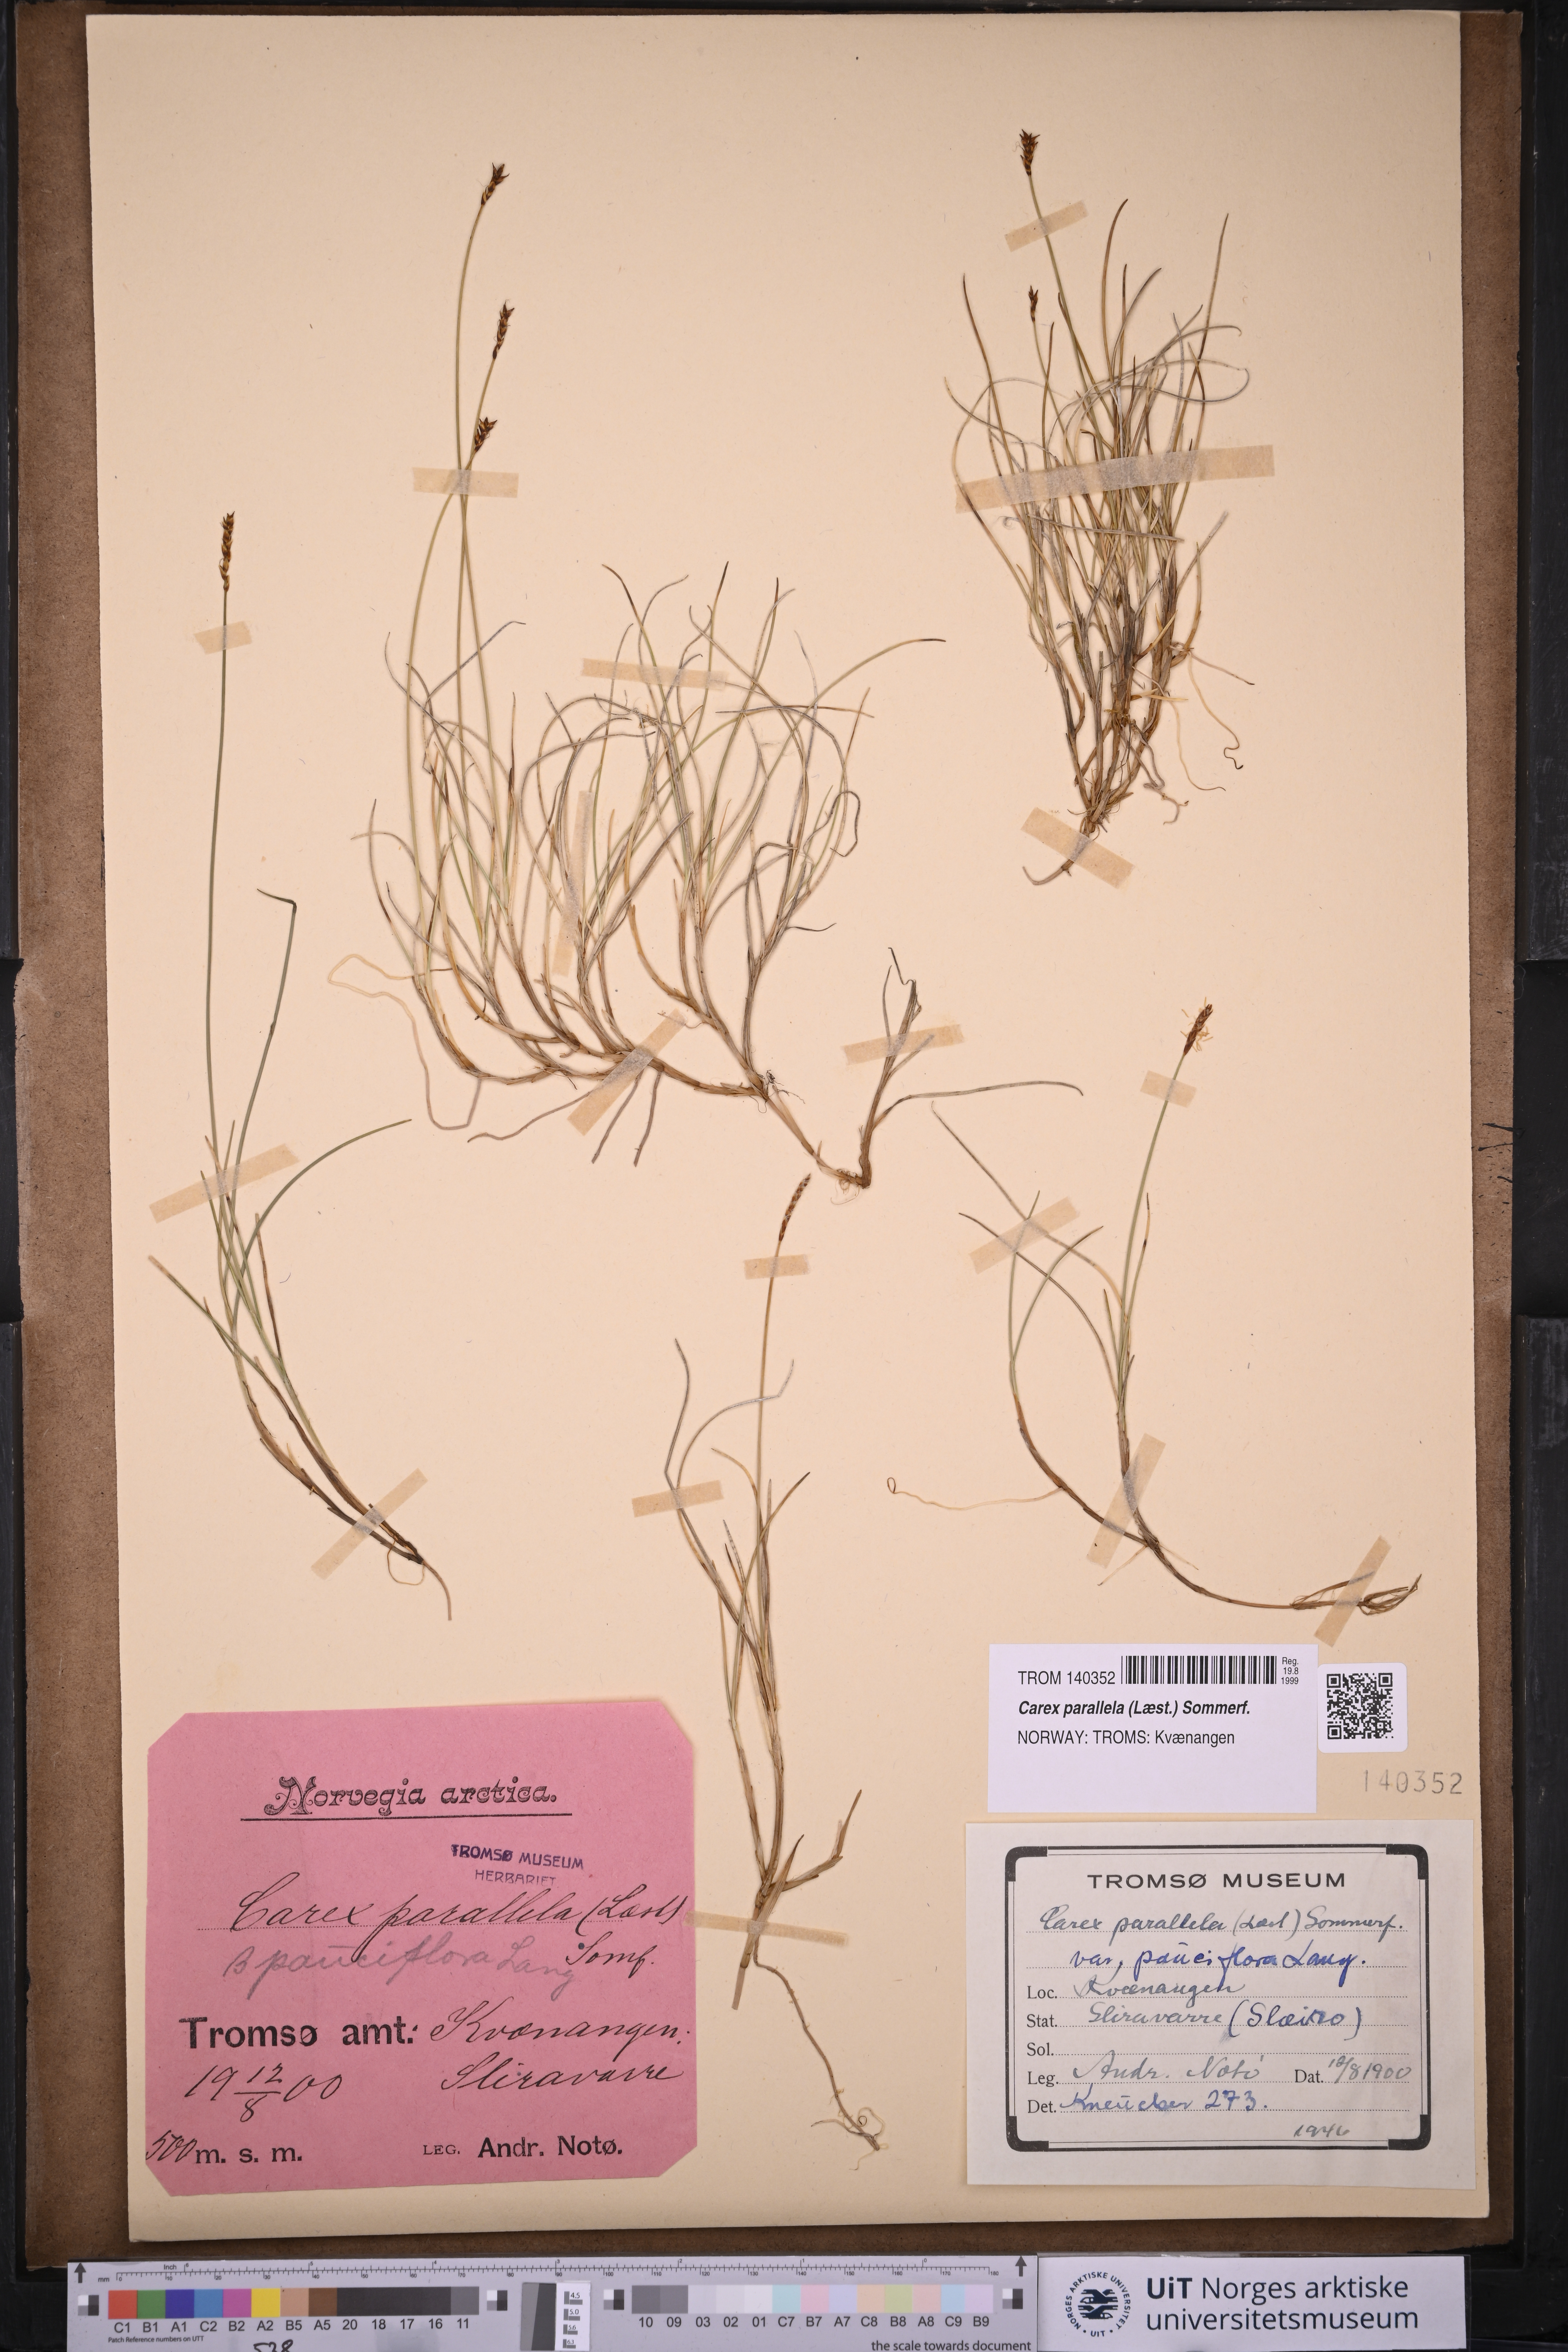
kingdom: Plantae
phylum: Tracheophyta
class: Liliopsida
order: Poales
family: Cyperaceae
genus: Carex
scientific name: Carex parallela
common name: Parallel sedge
